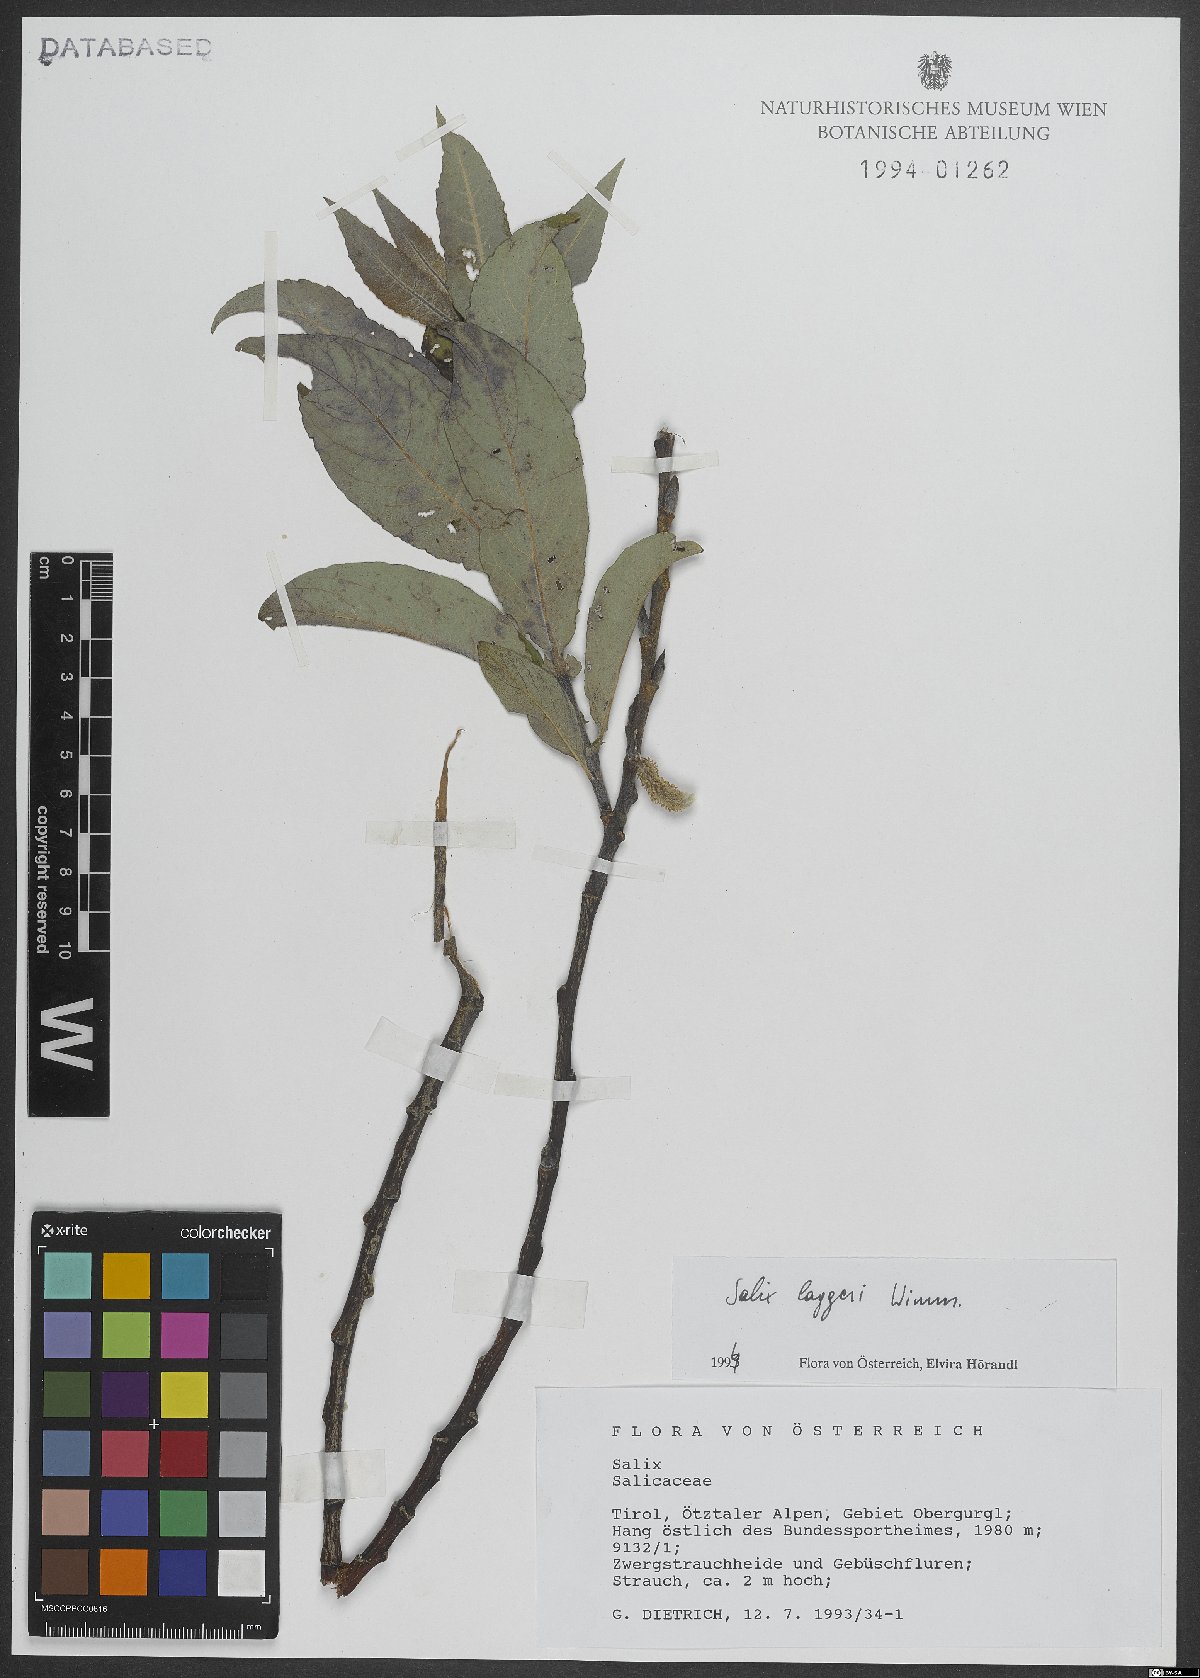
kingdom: Plantae
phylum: Tracheophyta
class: Magnoliopsida
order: Malpighiales
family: Salicaceae
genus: Salix
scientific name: Salix laggeri
